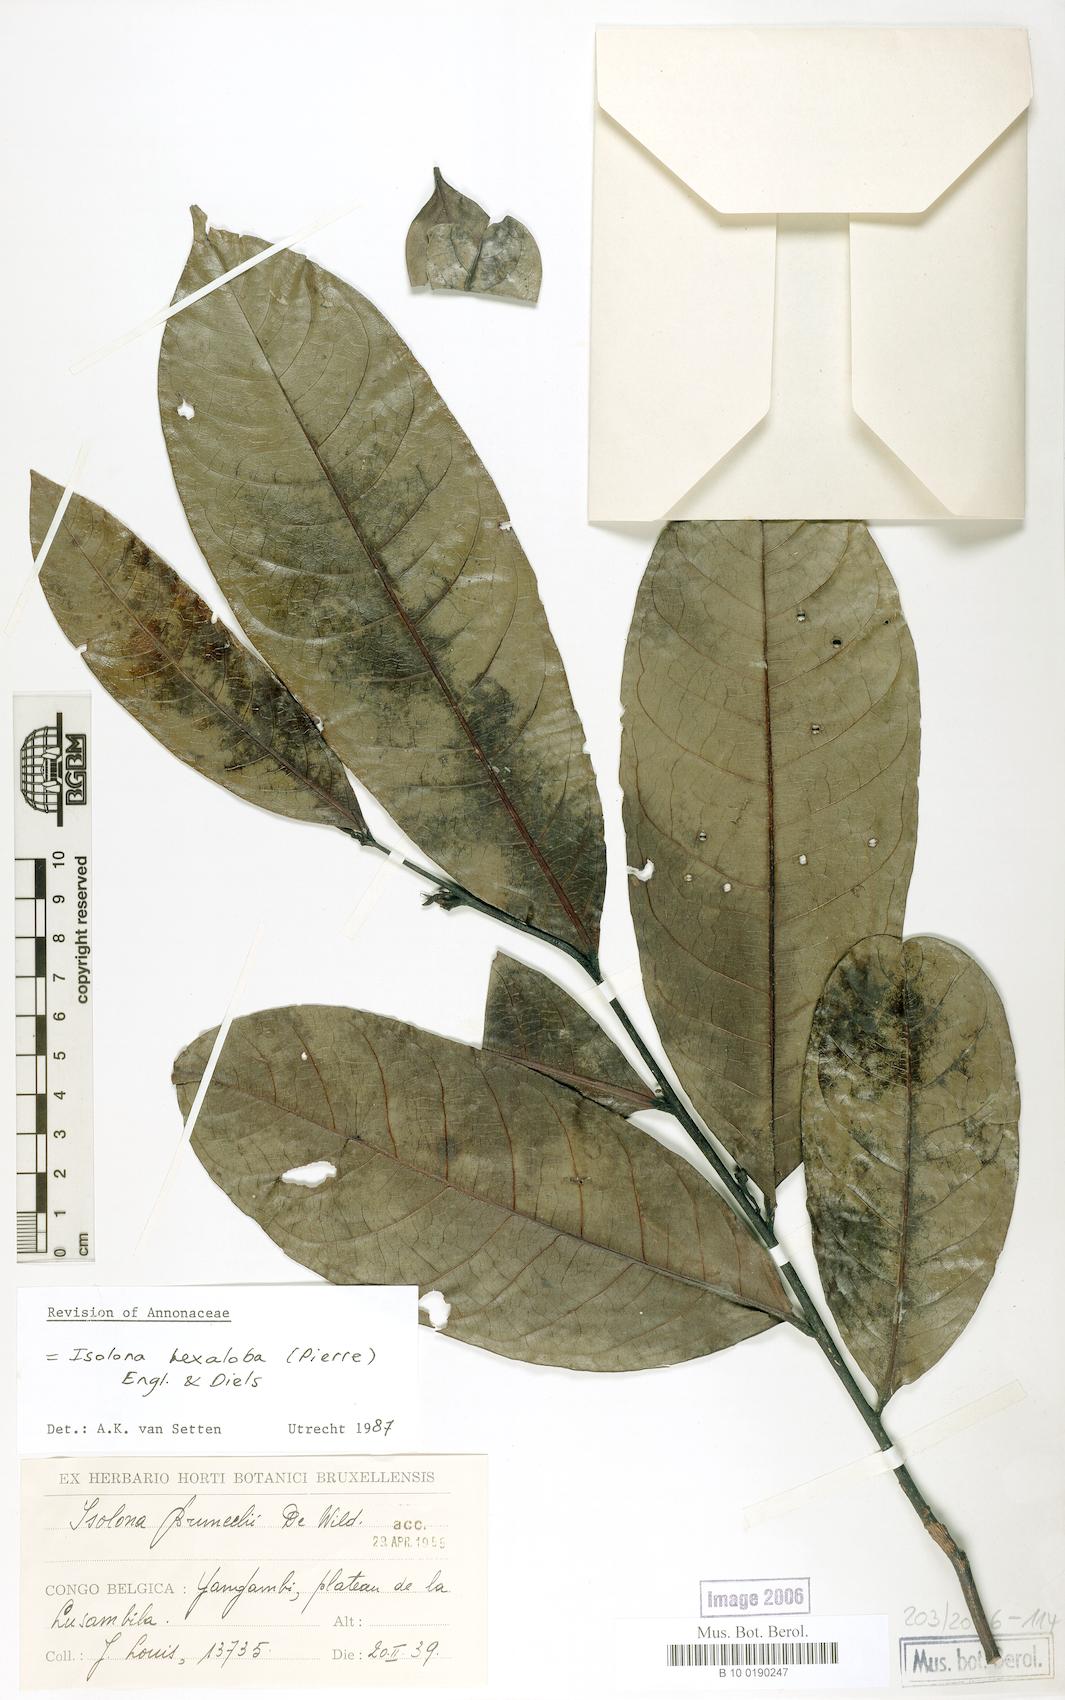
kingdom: Plantae
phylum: Tracheophyta
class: Magnoliopsida
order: Magnoliales
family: Annonaceae
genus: Isolona
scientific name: Isolona hexaloba
